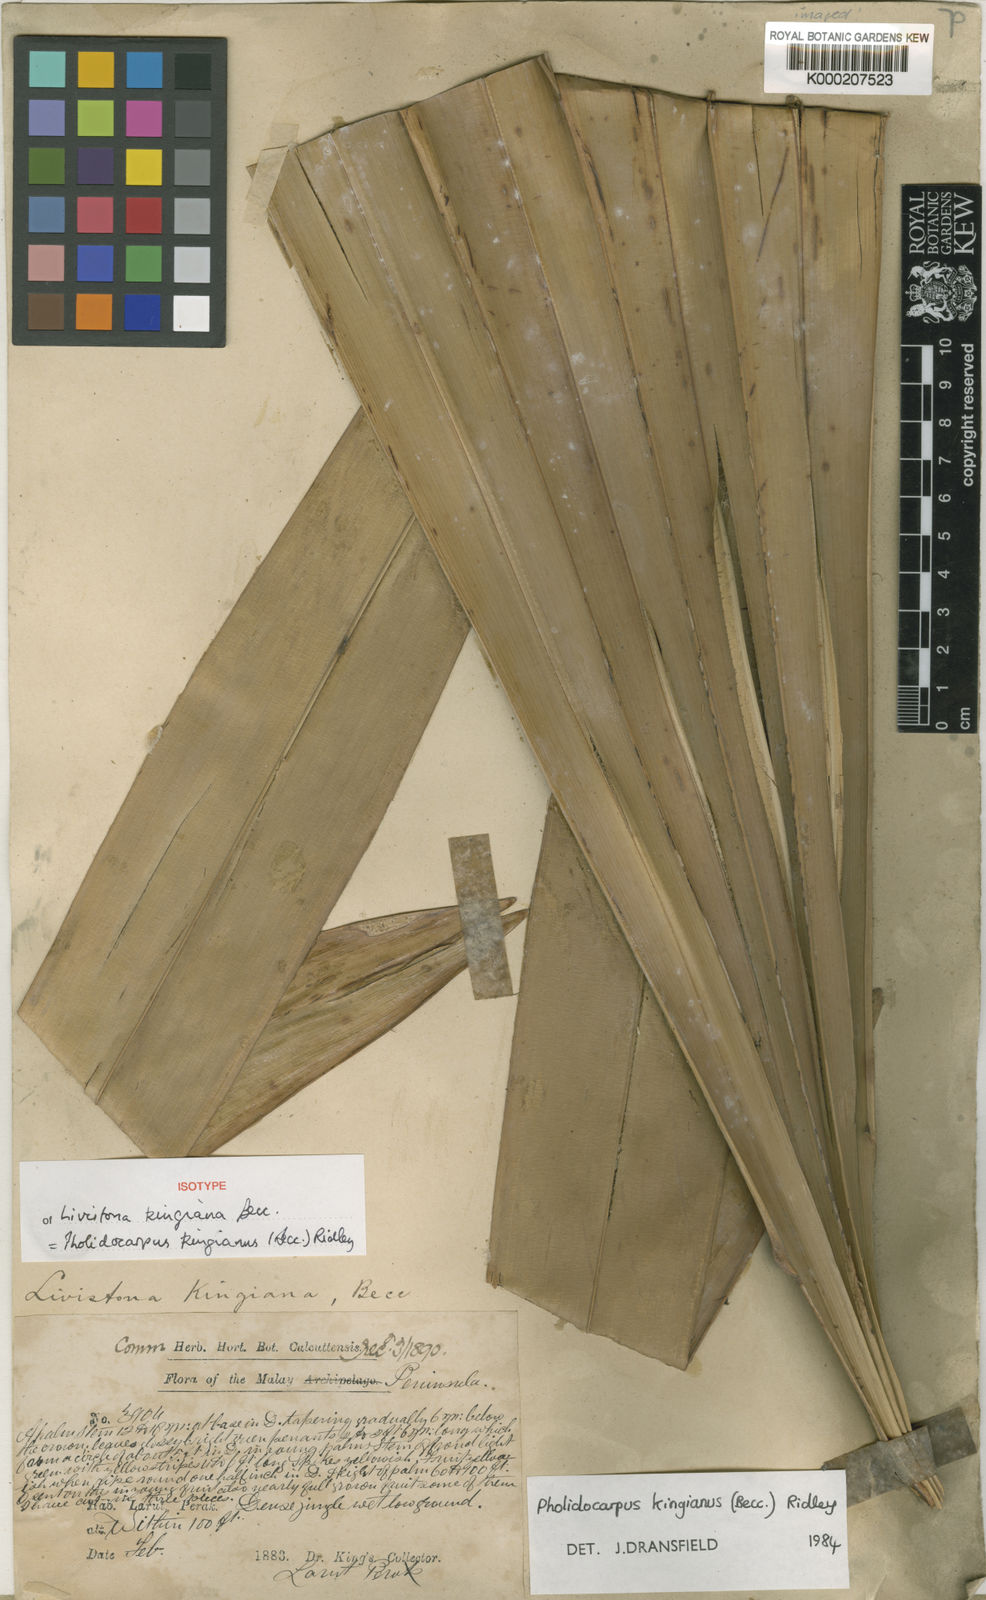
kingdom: Plantae
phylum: Tracheophyta
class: Liliopsida
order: Arecales
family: Arecaceae
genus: Pholidocarpus
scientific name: Pholidocarpus kingianus
